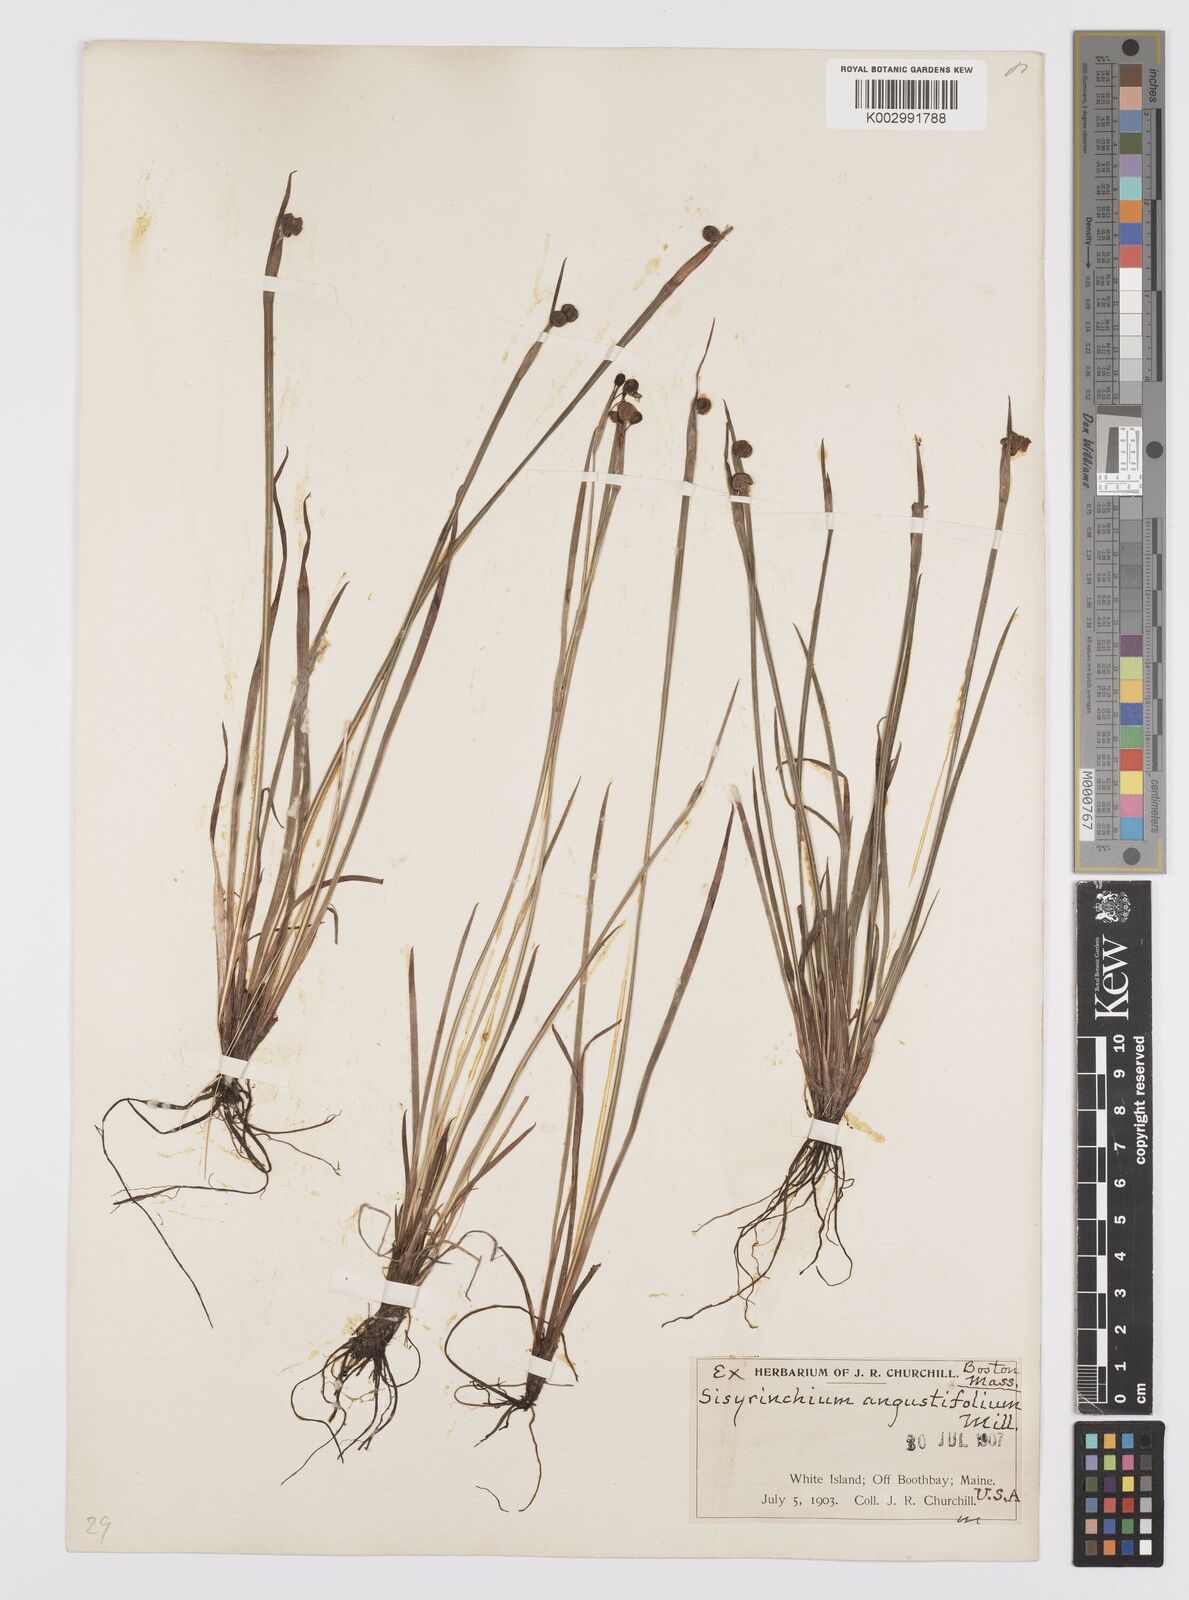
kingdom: Plantae
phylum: Tracheophyta
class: Liliopsida
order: Asparagales
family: Iridaceae
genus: Sisyrinchium
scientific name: Sisyrinchium bermudiana
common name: Blue-eyed-grass
